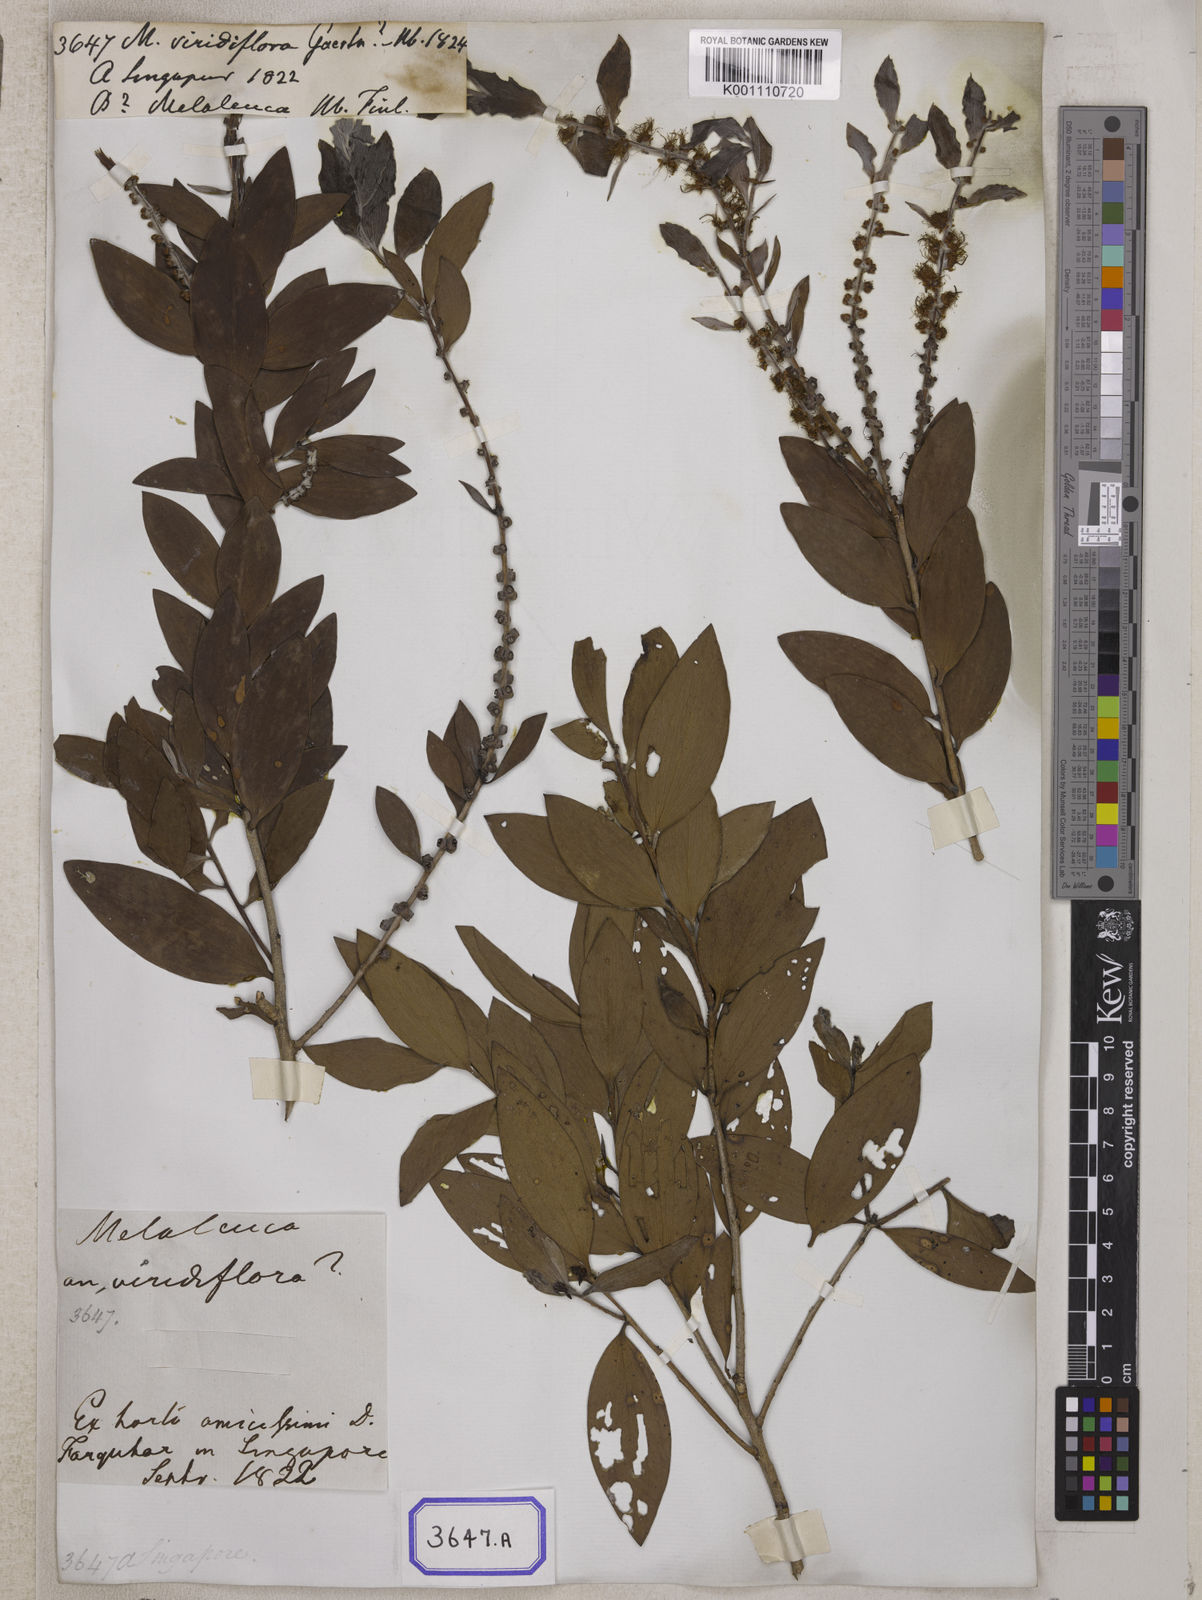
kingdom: Plantae
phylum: Tracheophyta
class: Magnoliopsida
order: Myrtales
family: Myrtaceae
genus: Melaleuca
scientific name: Melaleuca viridiflora
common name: Brown-leaved paperbark
